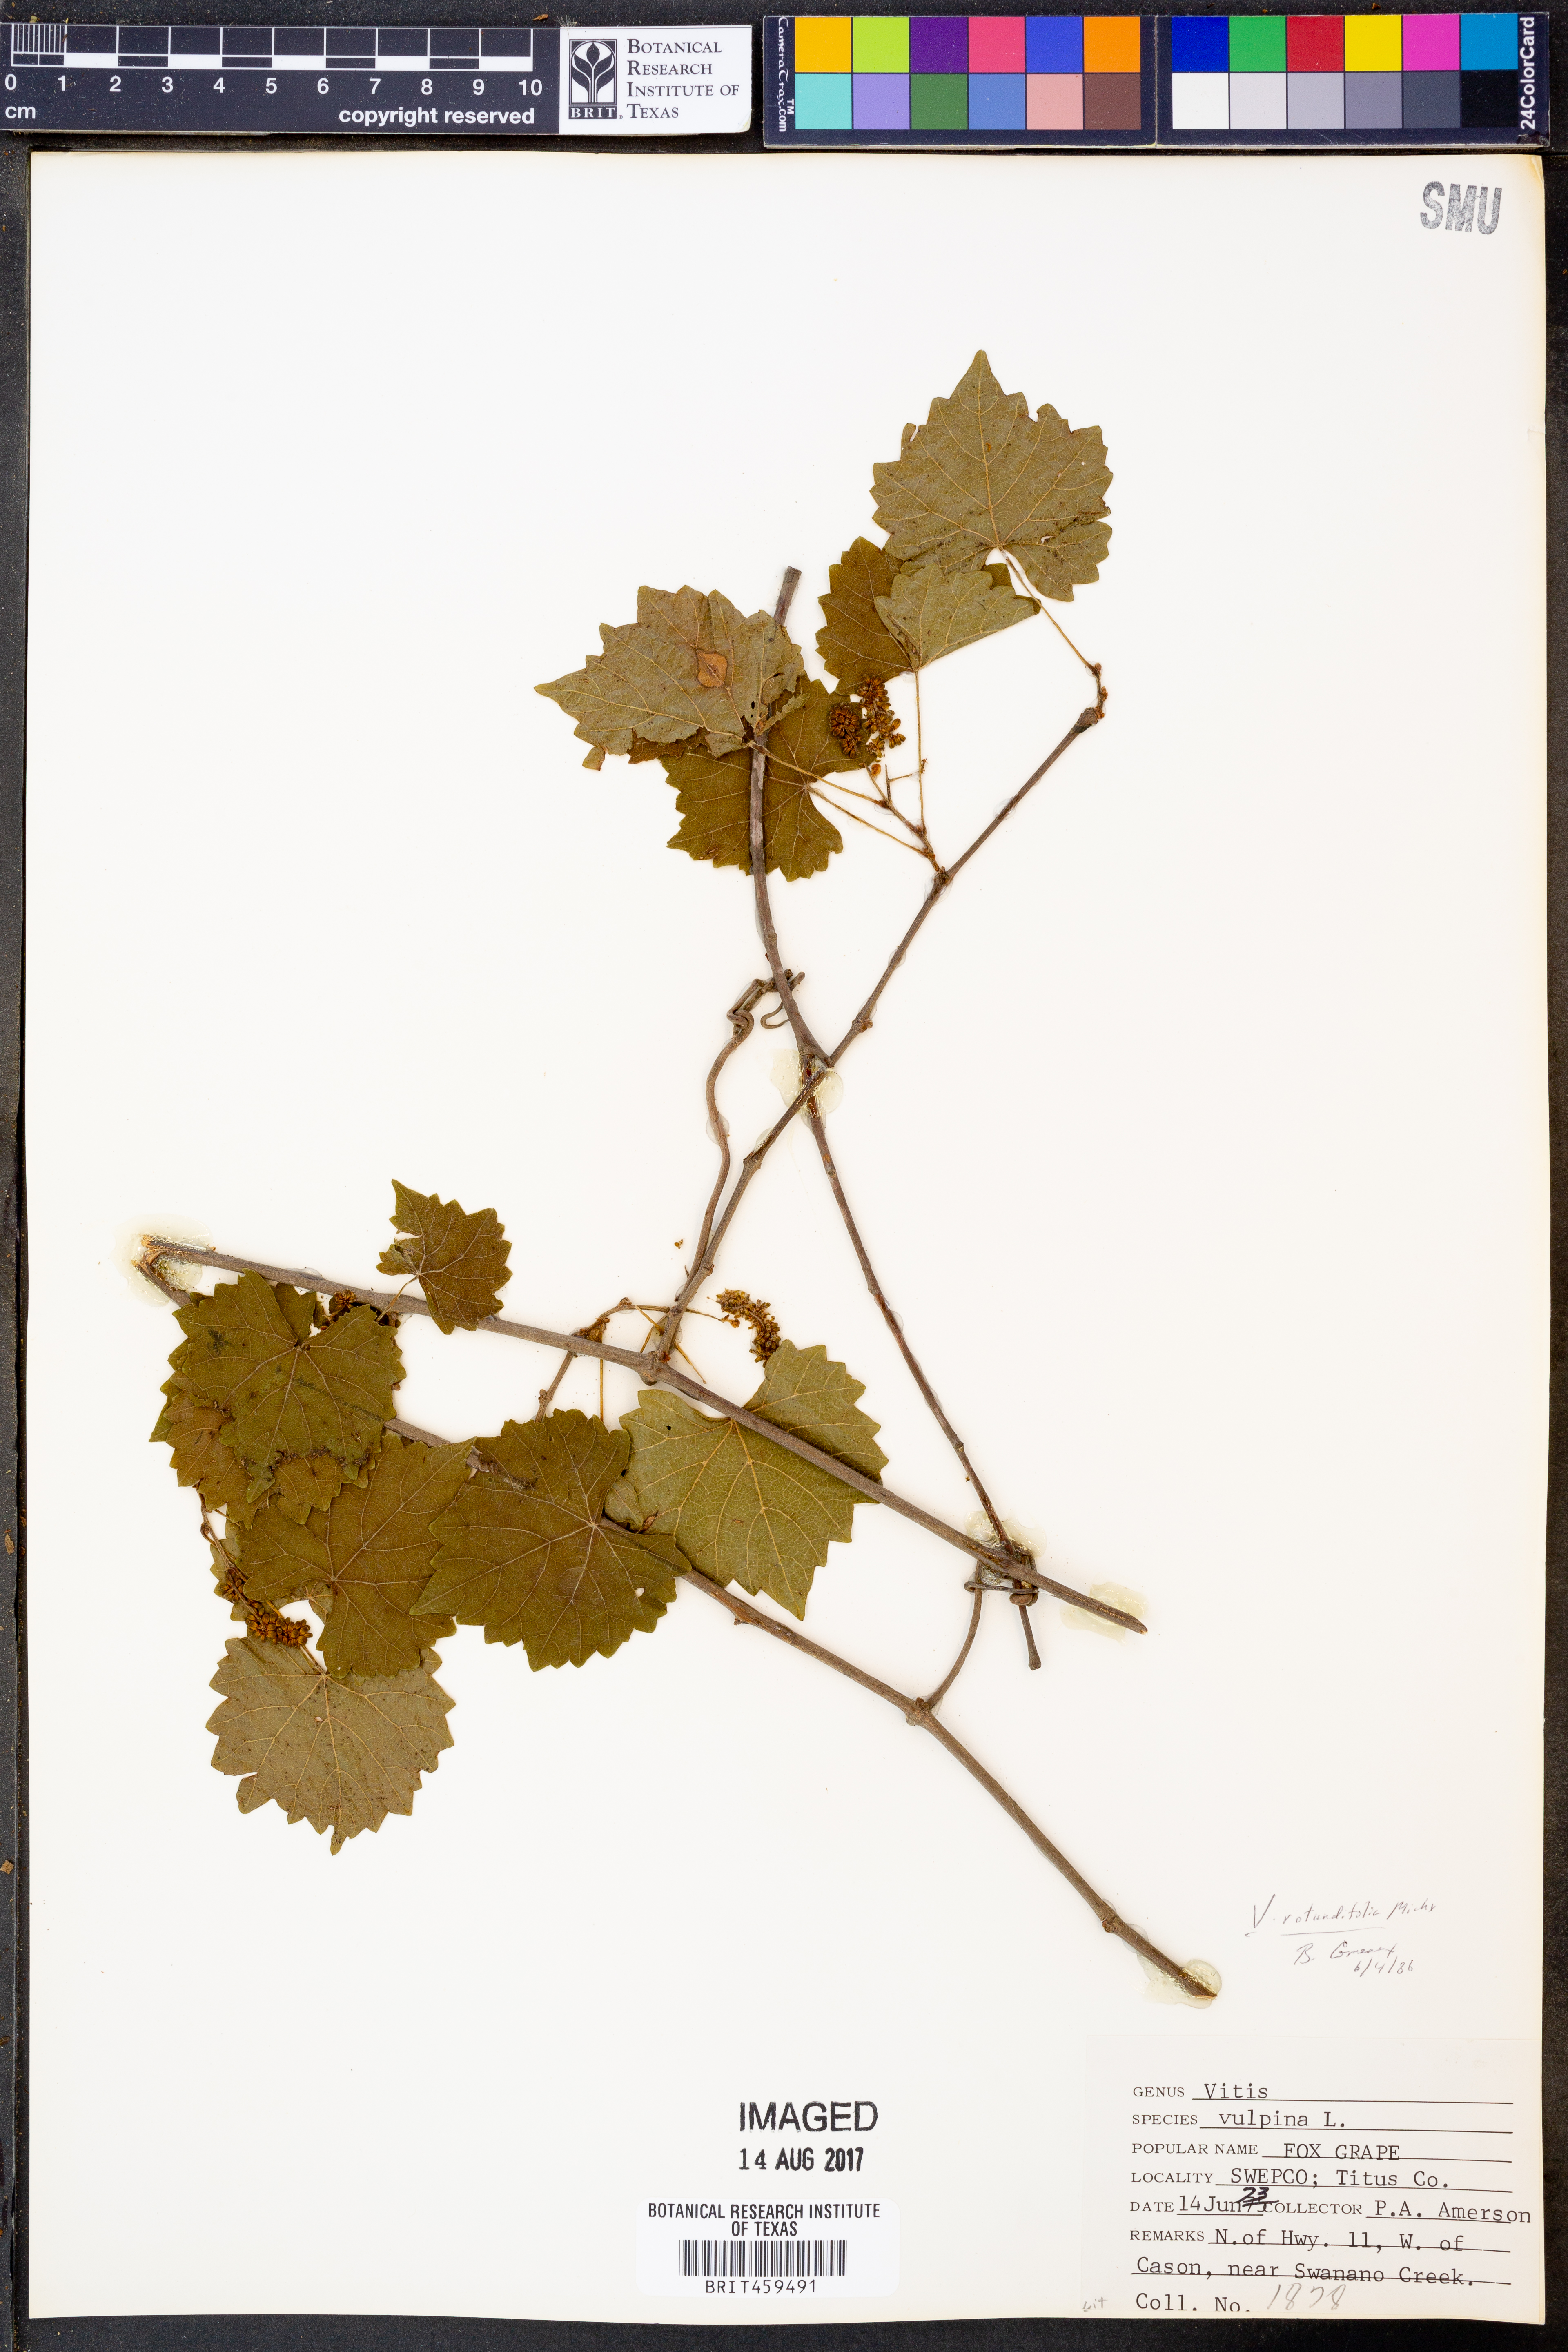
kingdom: Plantae
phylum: Tracheophyta
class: Magnoliopsida
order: Vitales
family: Vitaceae
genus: Vitis
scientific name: Vitis rotundifolia
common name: Muscadine grape
